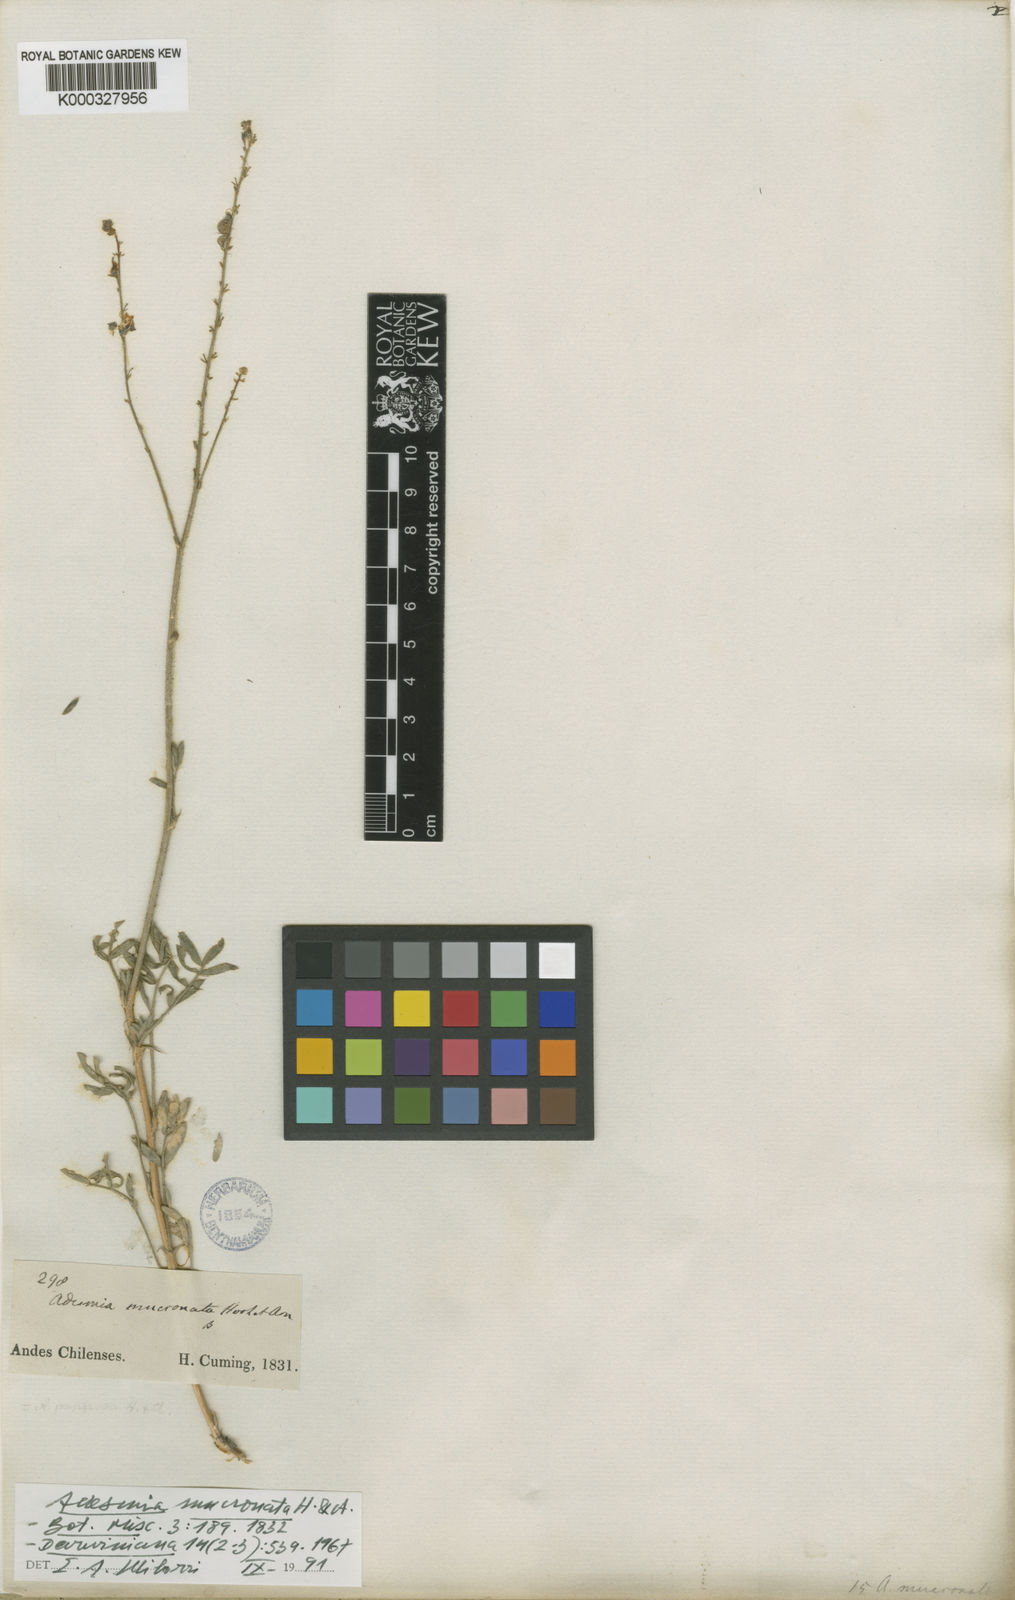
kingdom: Plantae
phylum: Tracheophyta
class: Magnoliopsida
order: Fabales
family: Fabaceae
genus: Adesmia
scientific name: Adesmia mucronata
